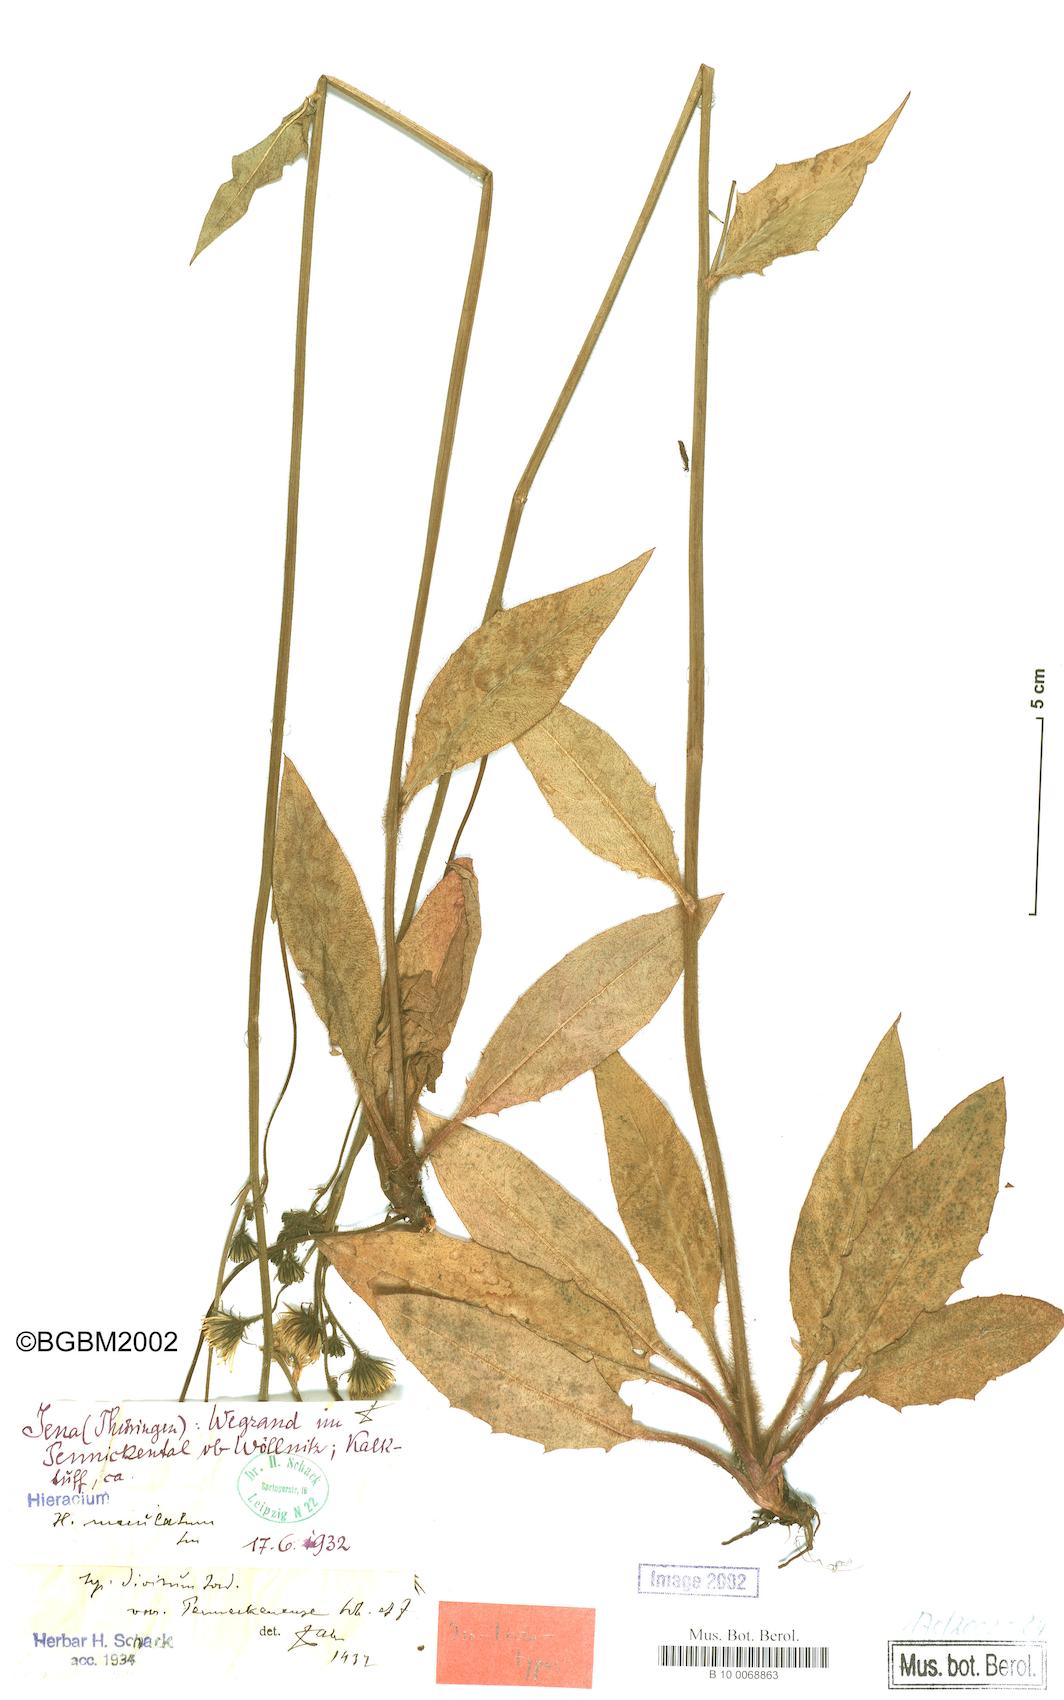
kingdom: Plantae
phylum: Tracheophyta
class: Magnoliopsida
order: Asterales
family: Asteraceae
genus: Hieracium
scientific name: Hieracium maculatum
